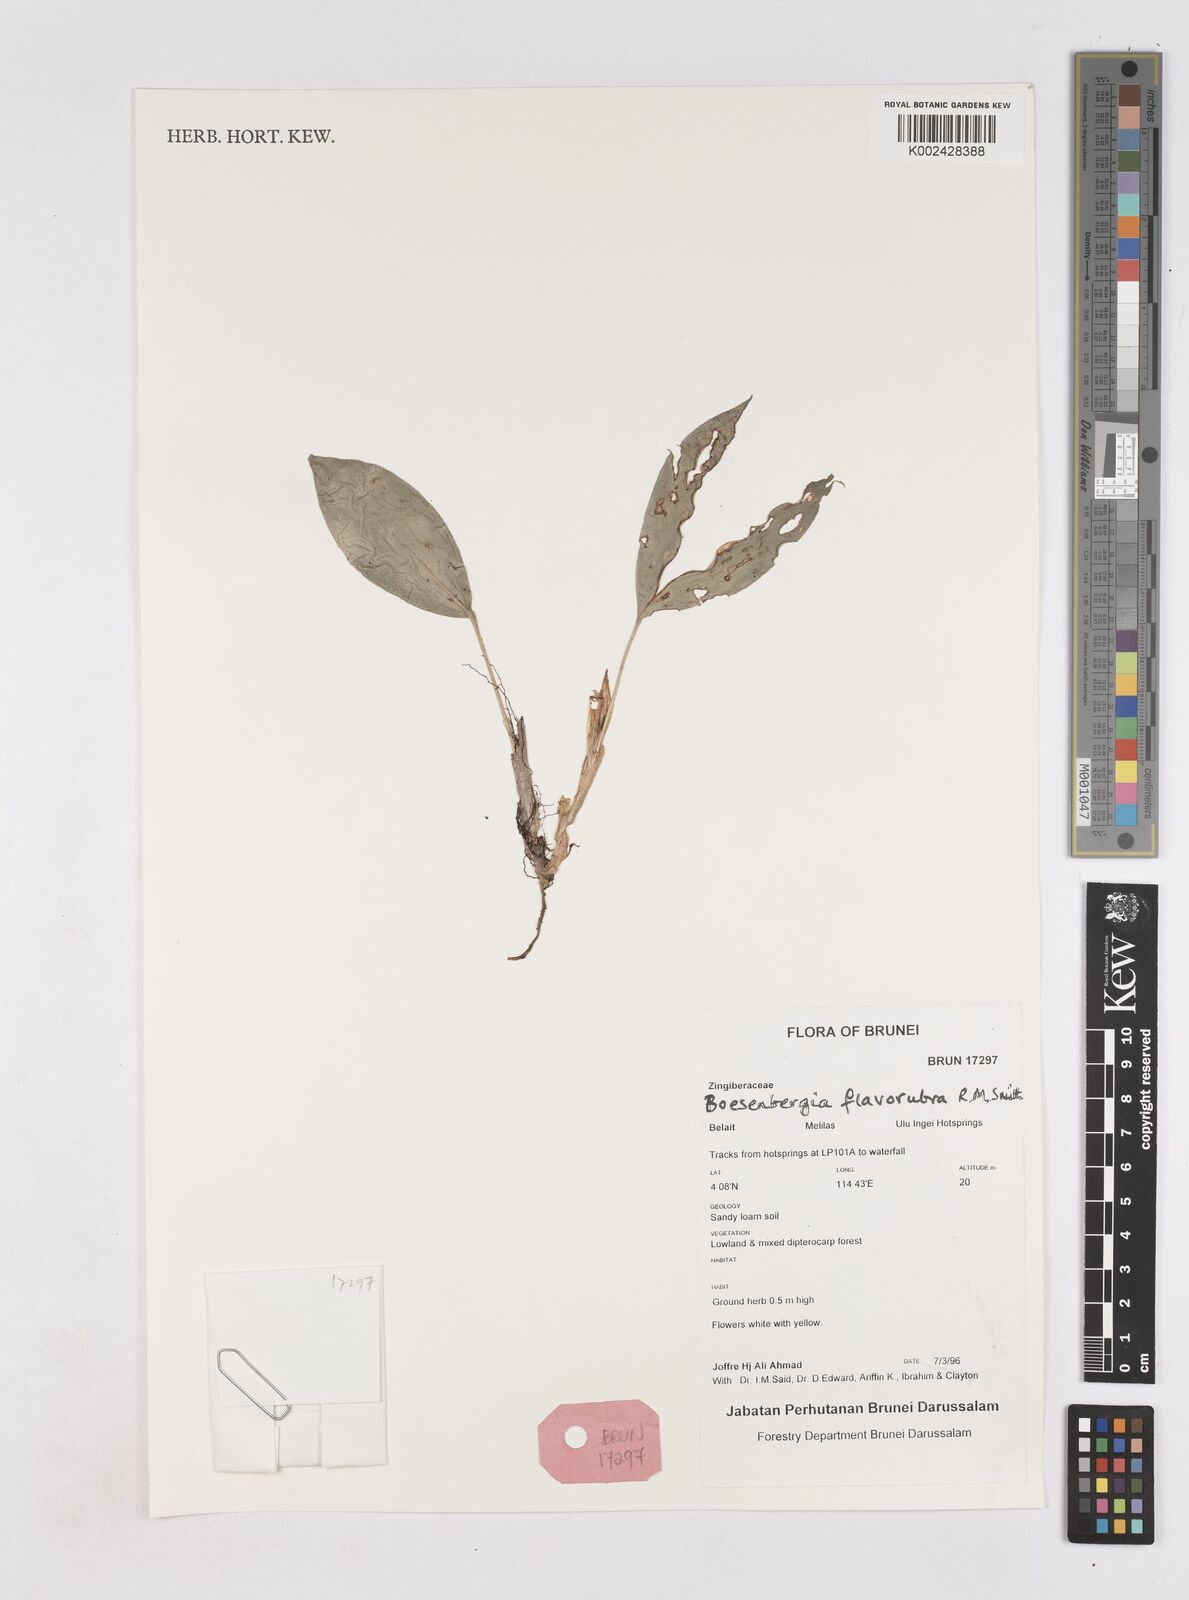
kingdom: Plantae
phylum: Tracheophyta
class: Liliopsida
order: Zingiberales
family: Zingiberaceae
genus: Boesenbergia
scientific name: Boesenbergia flavorubra
